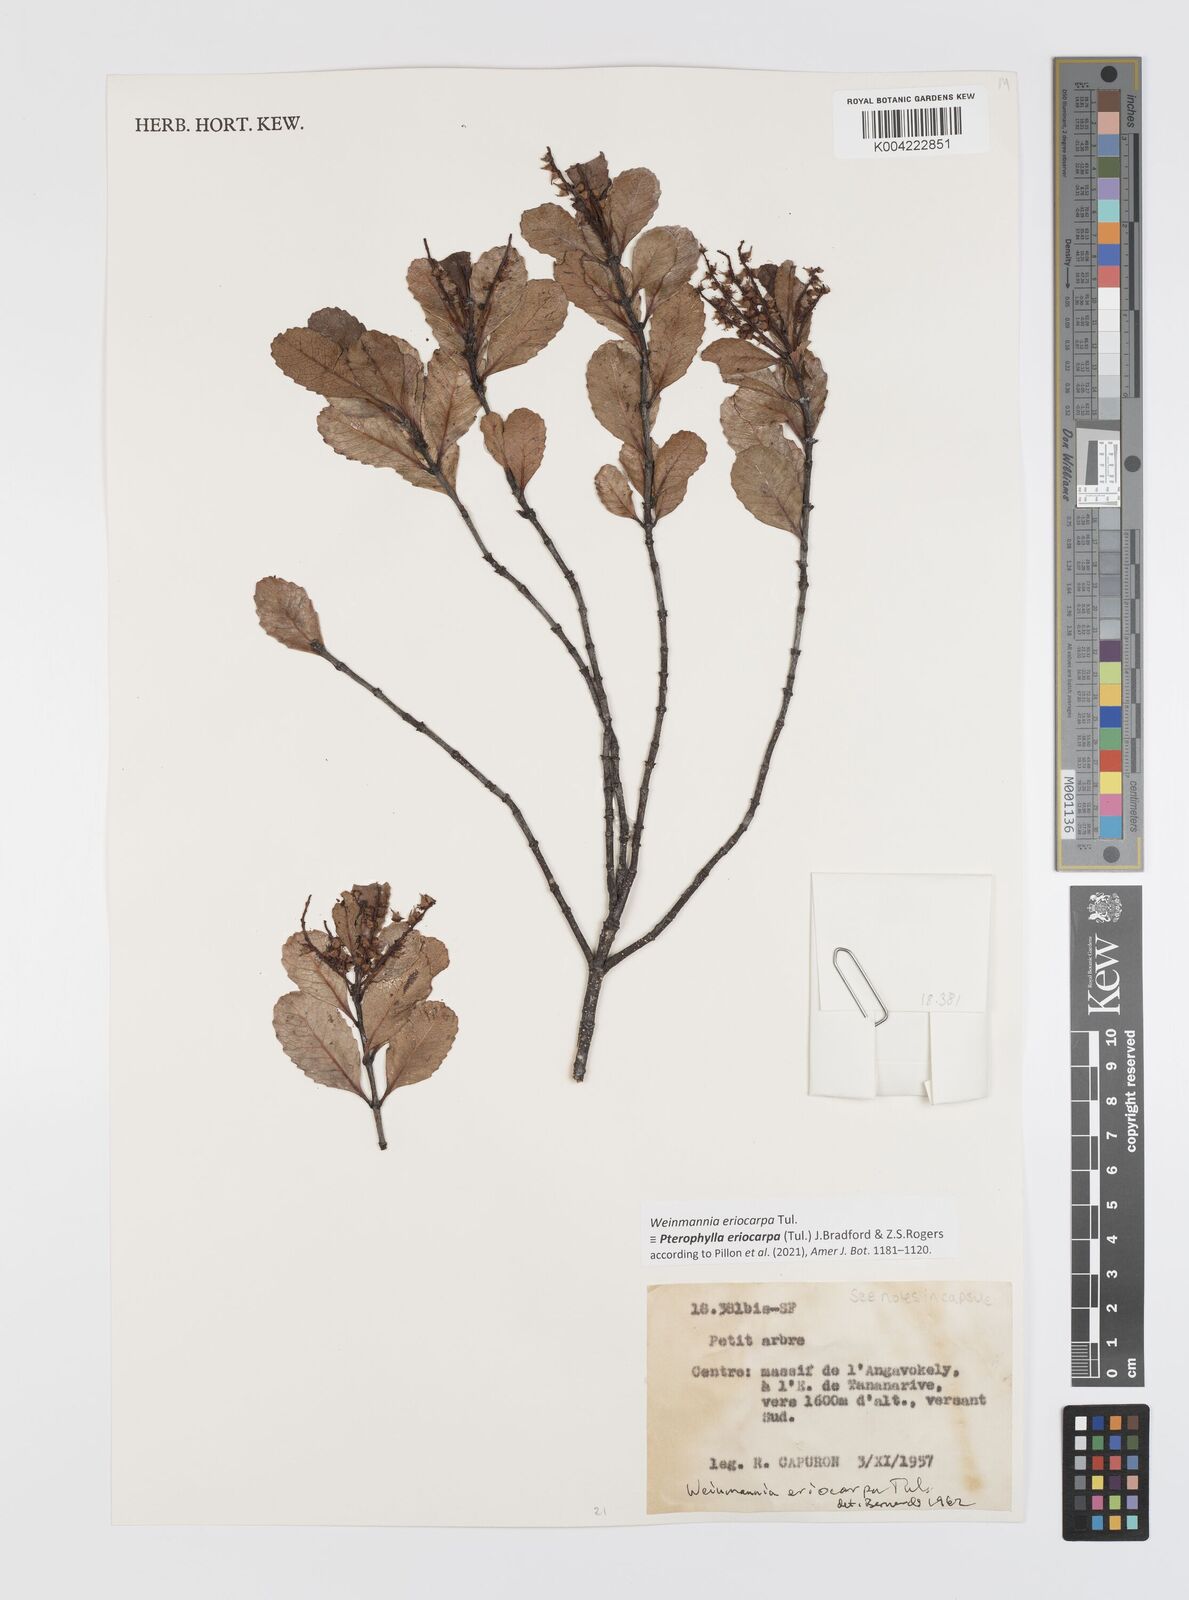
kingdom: Plantae
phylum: Tracheophyta
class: Magnoliopsida
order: Oxalidales
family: Cunoniaceae
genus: Pterophylla
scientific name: Pterophylla eriocarpa
